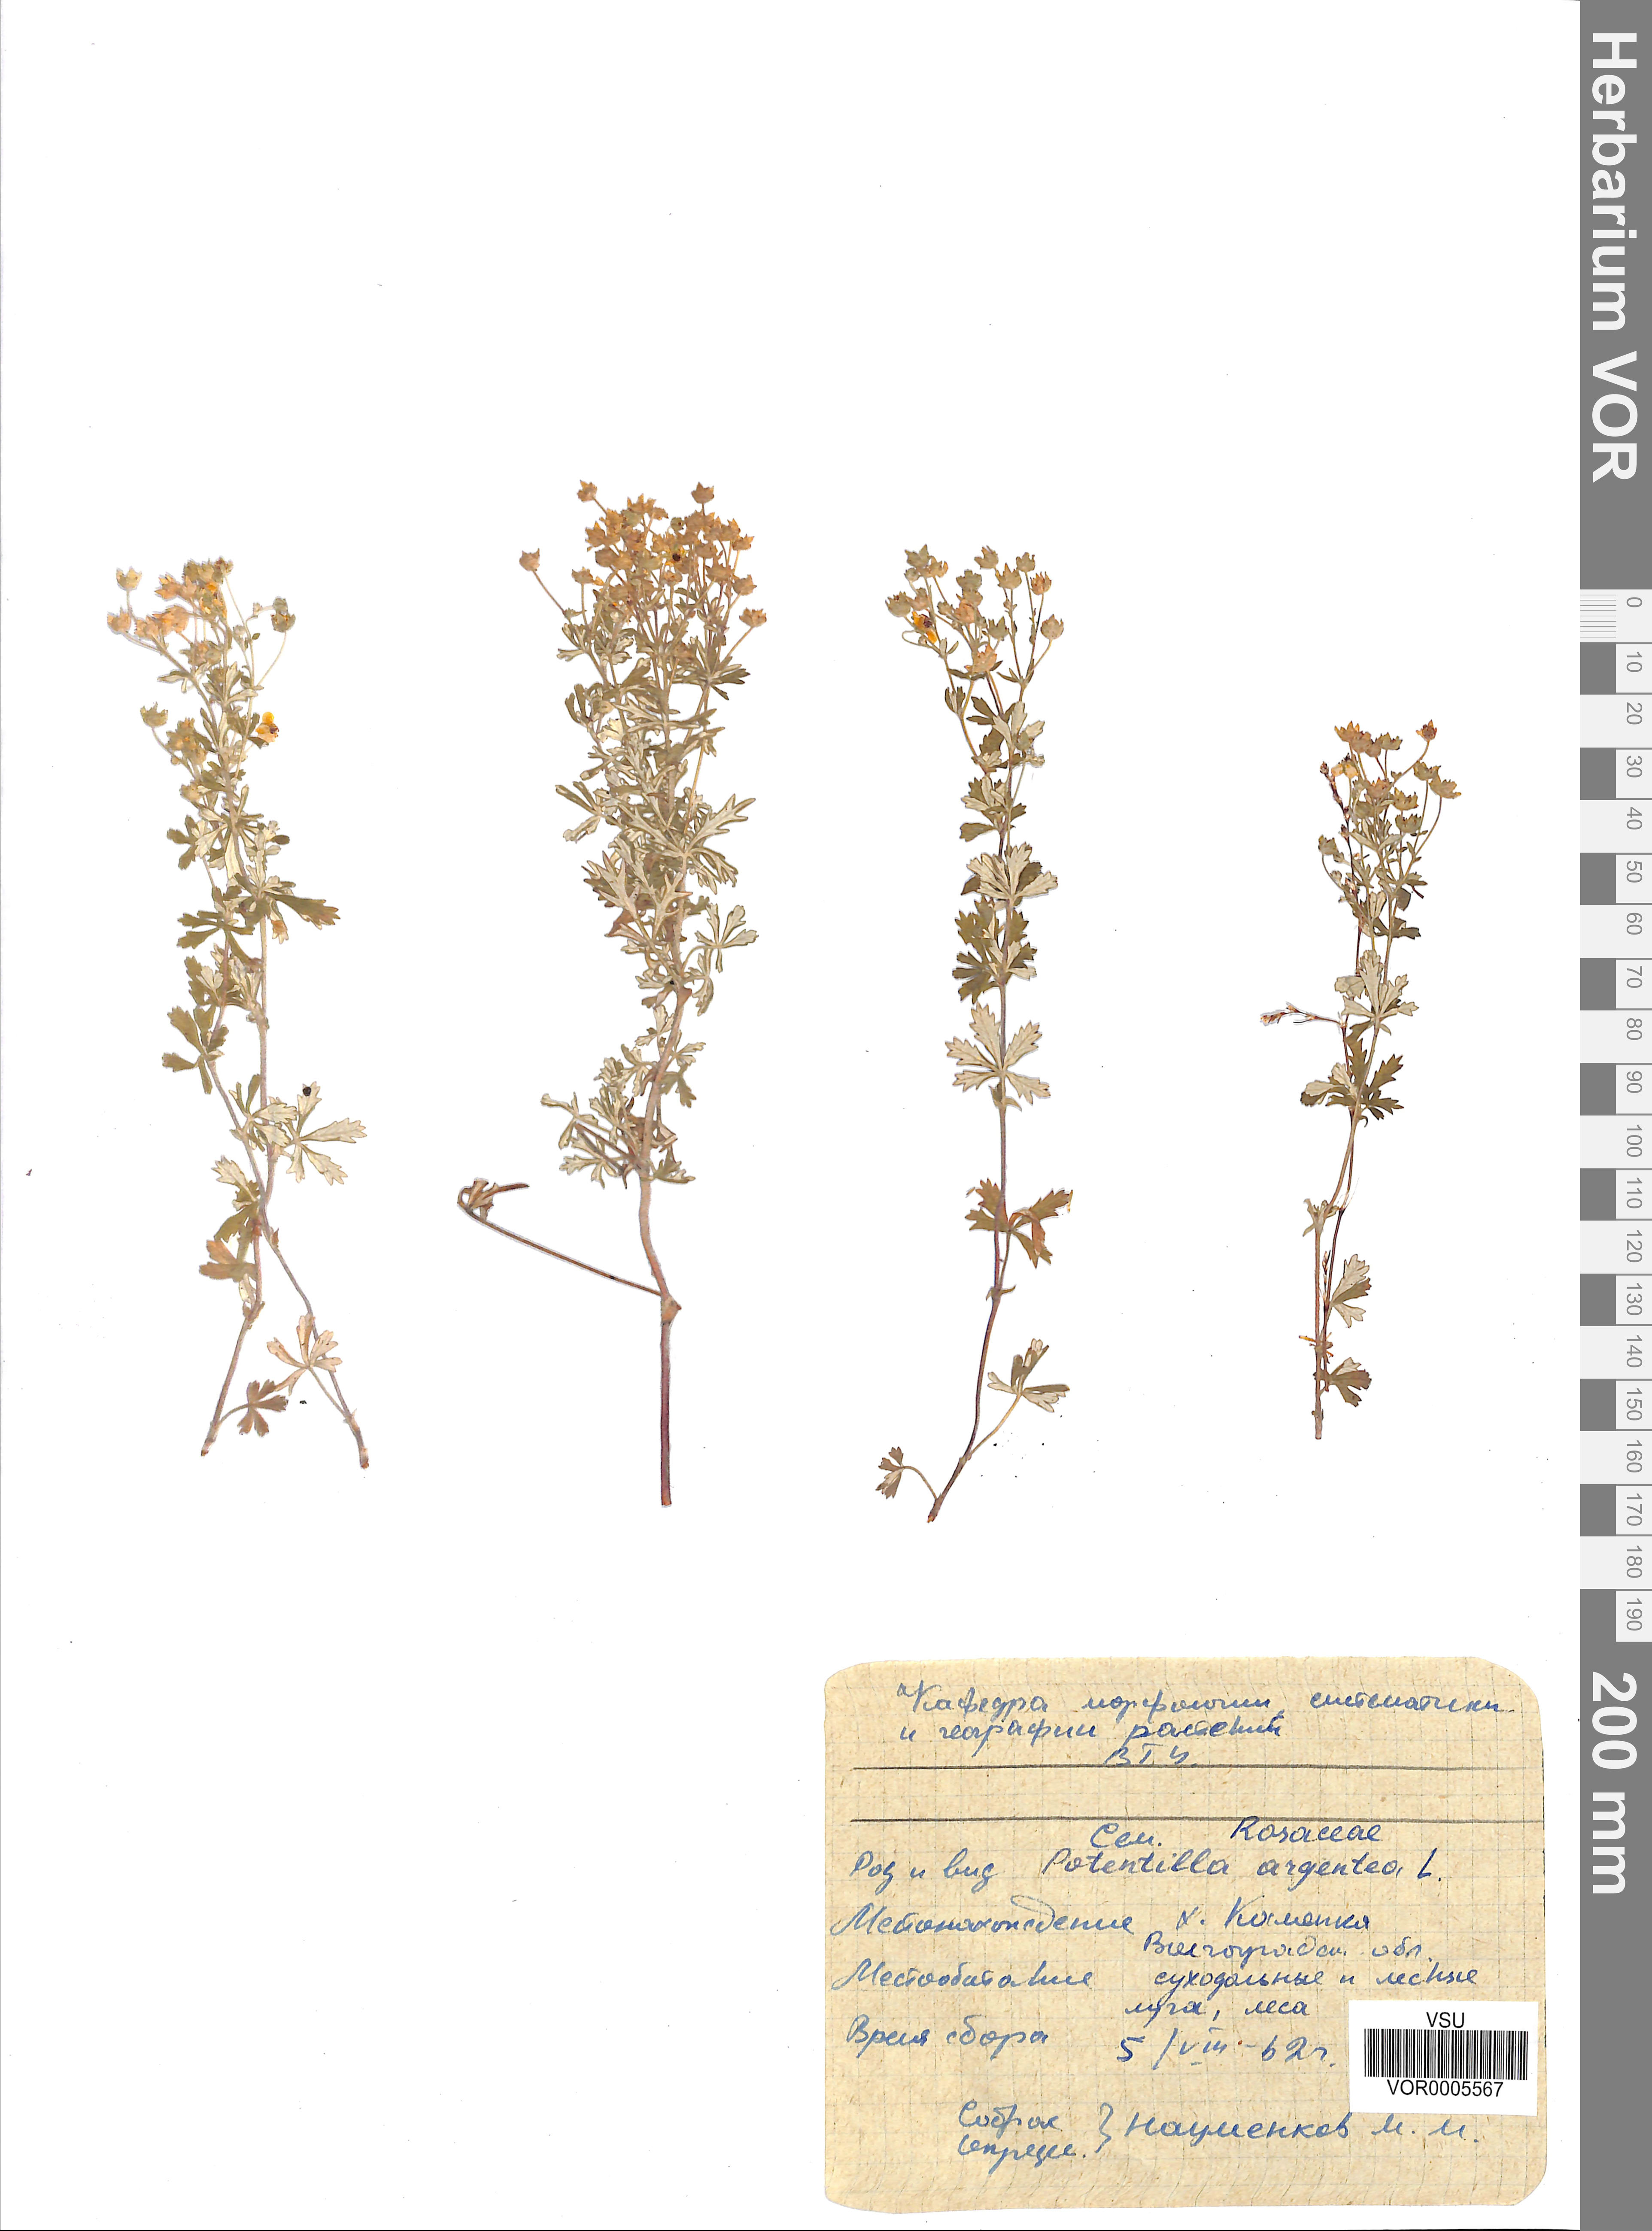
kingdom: Plantae
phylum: Tracheophyta
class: Magnoliopsida
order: Rosales
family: Rosaceae
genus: Potentilla
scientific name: Potentilla argentea
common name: Hoary cinquefoil
